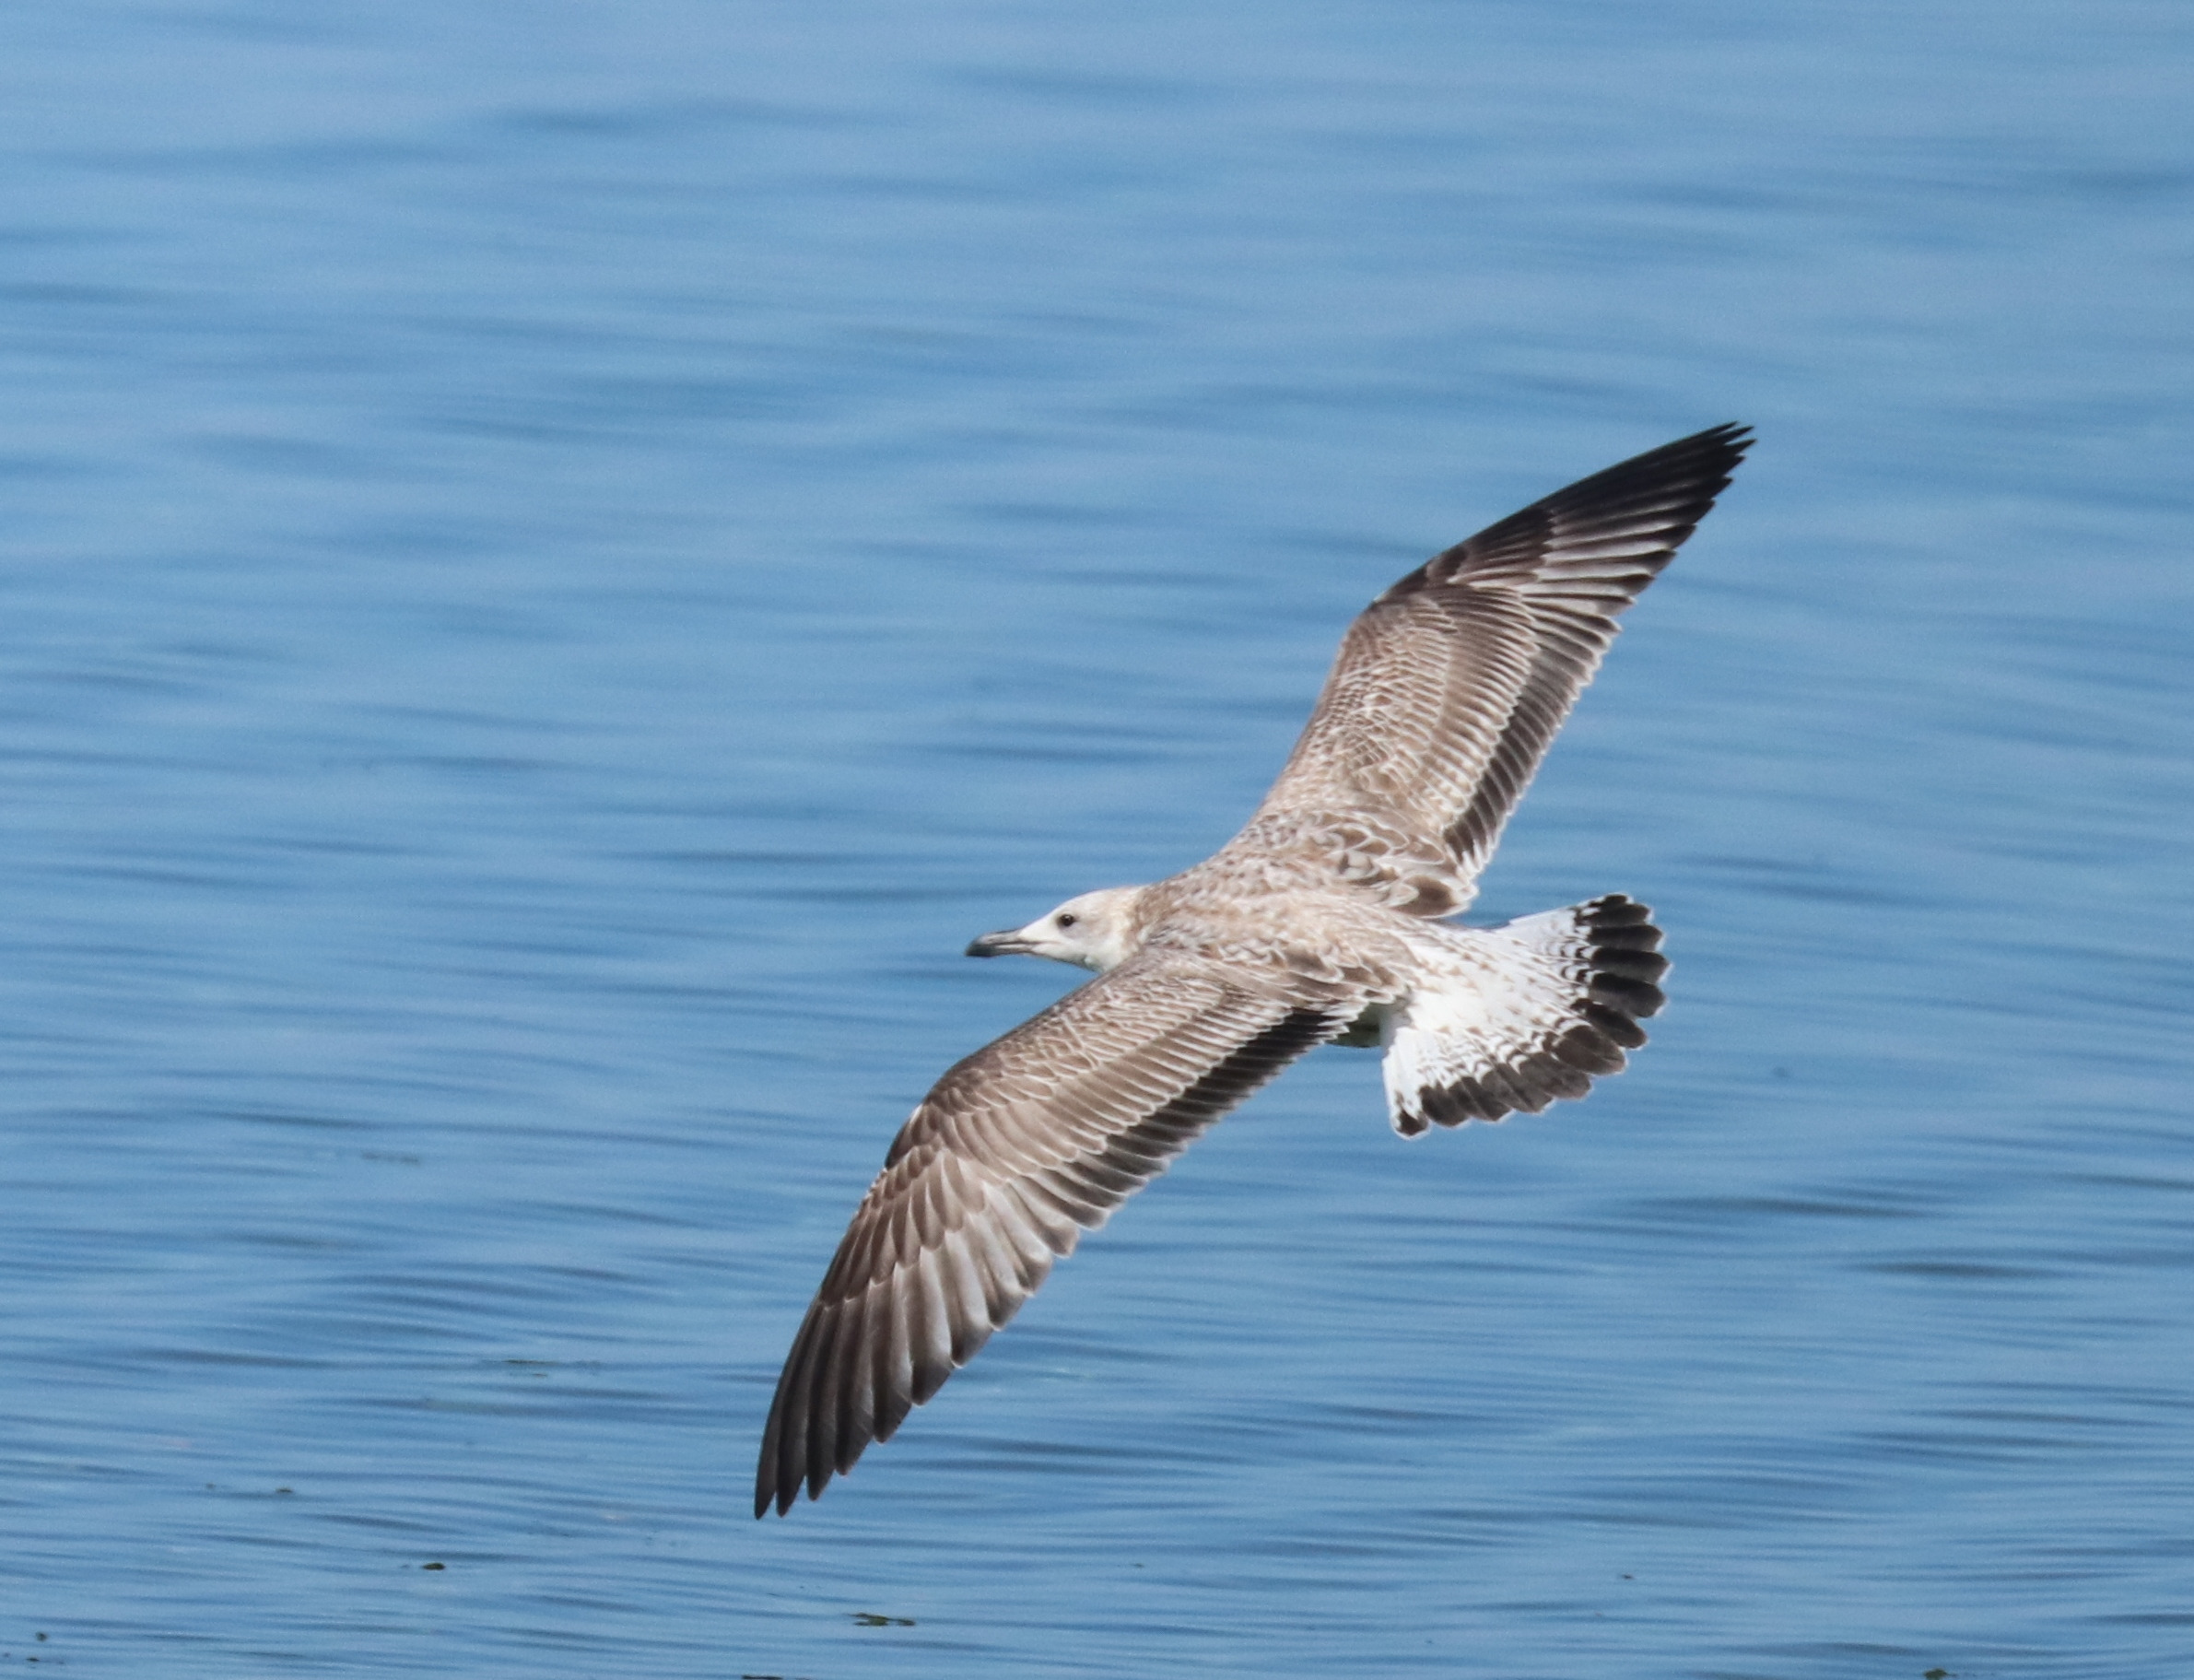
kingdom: Animalia
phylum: Chordata
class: Aves
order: Charadriiformes
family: Laridae
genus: Larus
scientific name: Larus cachinnans
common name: Kaspisk måge
